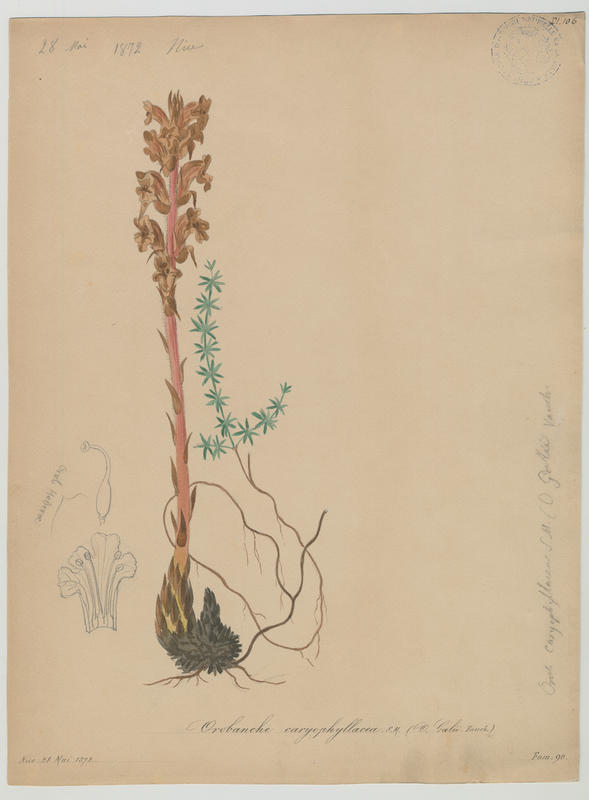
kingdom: Plantae
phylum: Tracheophyta
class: Magnoliopsida
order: Lamiales
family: Orobanchaceae
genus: Orobanche
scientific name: Orobanche caryophyllacea
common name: Bedstraw broomrape
